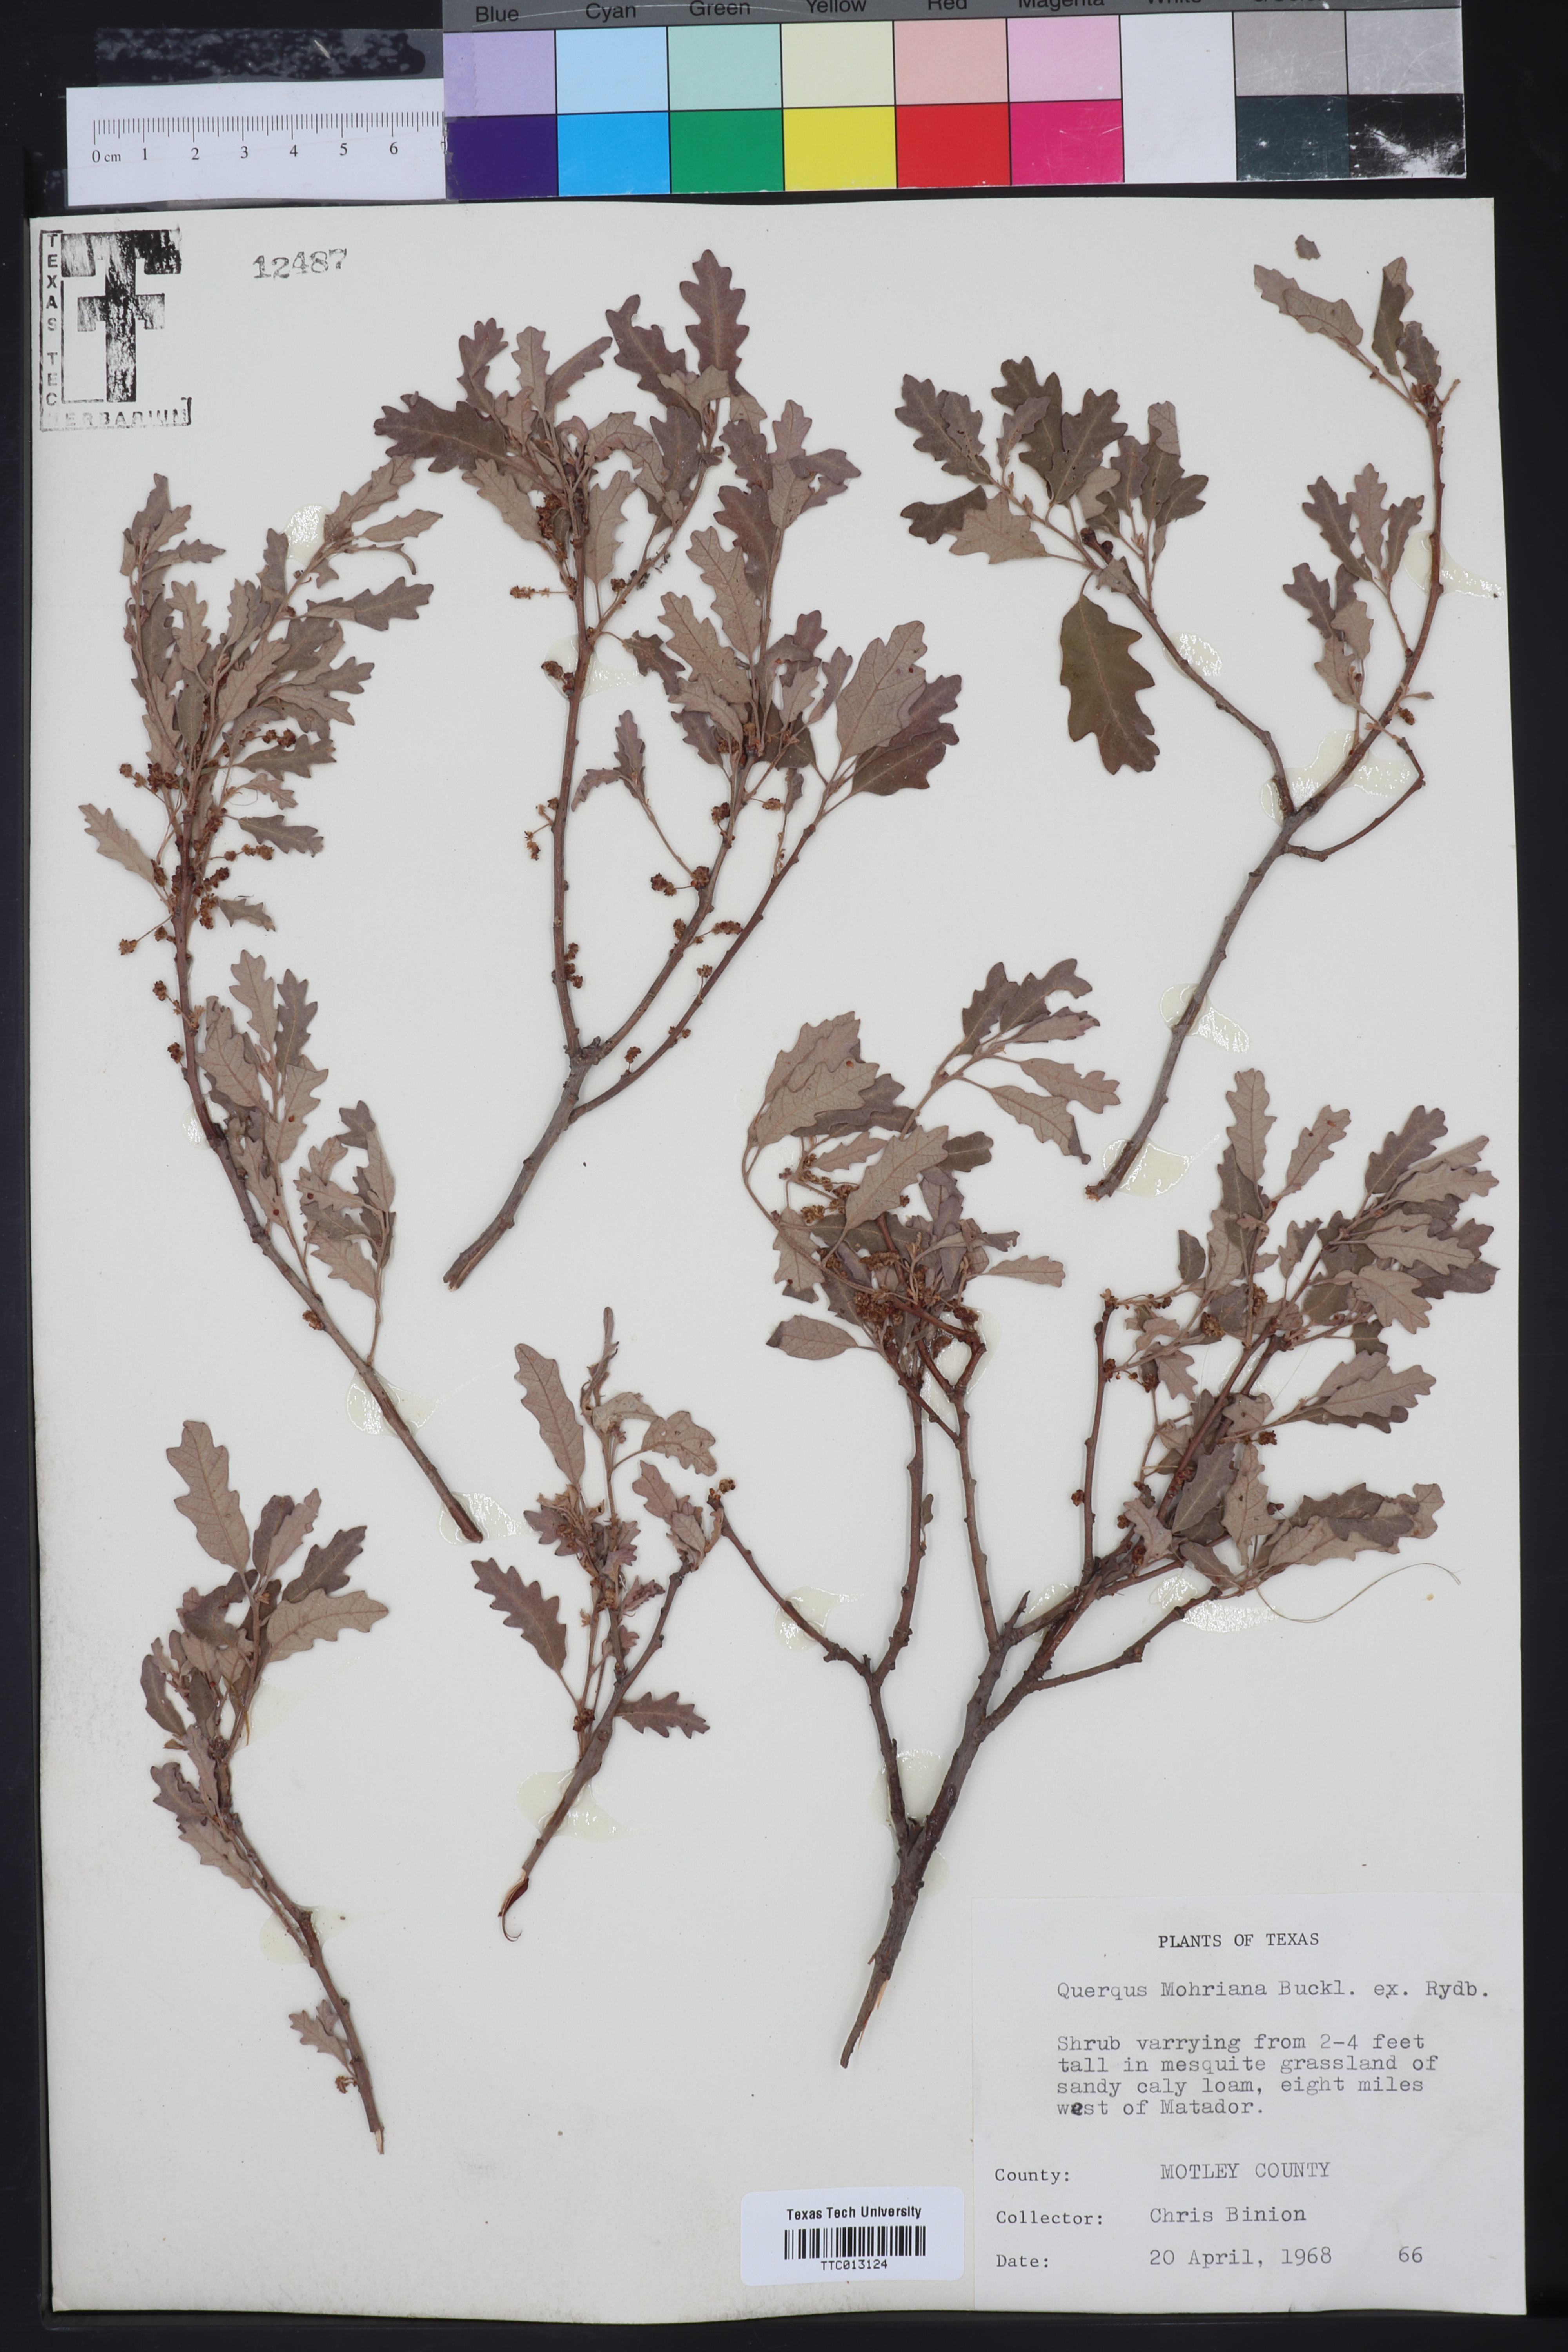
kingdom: Plantae
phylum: Tracheophyta
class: Magnoliopsida
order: Fagales
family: Fagaceae
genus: Quercus
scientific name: Quercus mohriana
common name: Mohr oak
